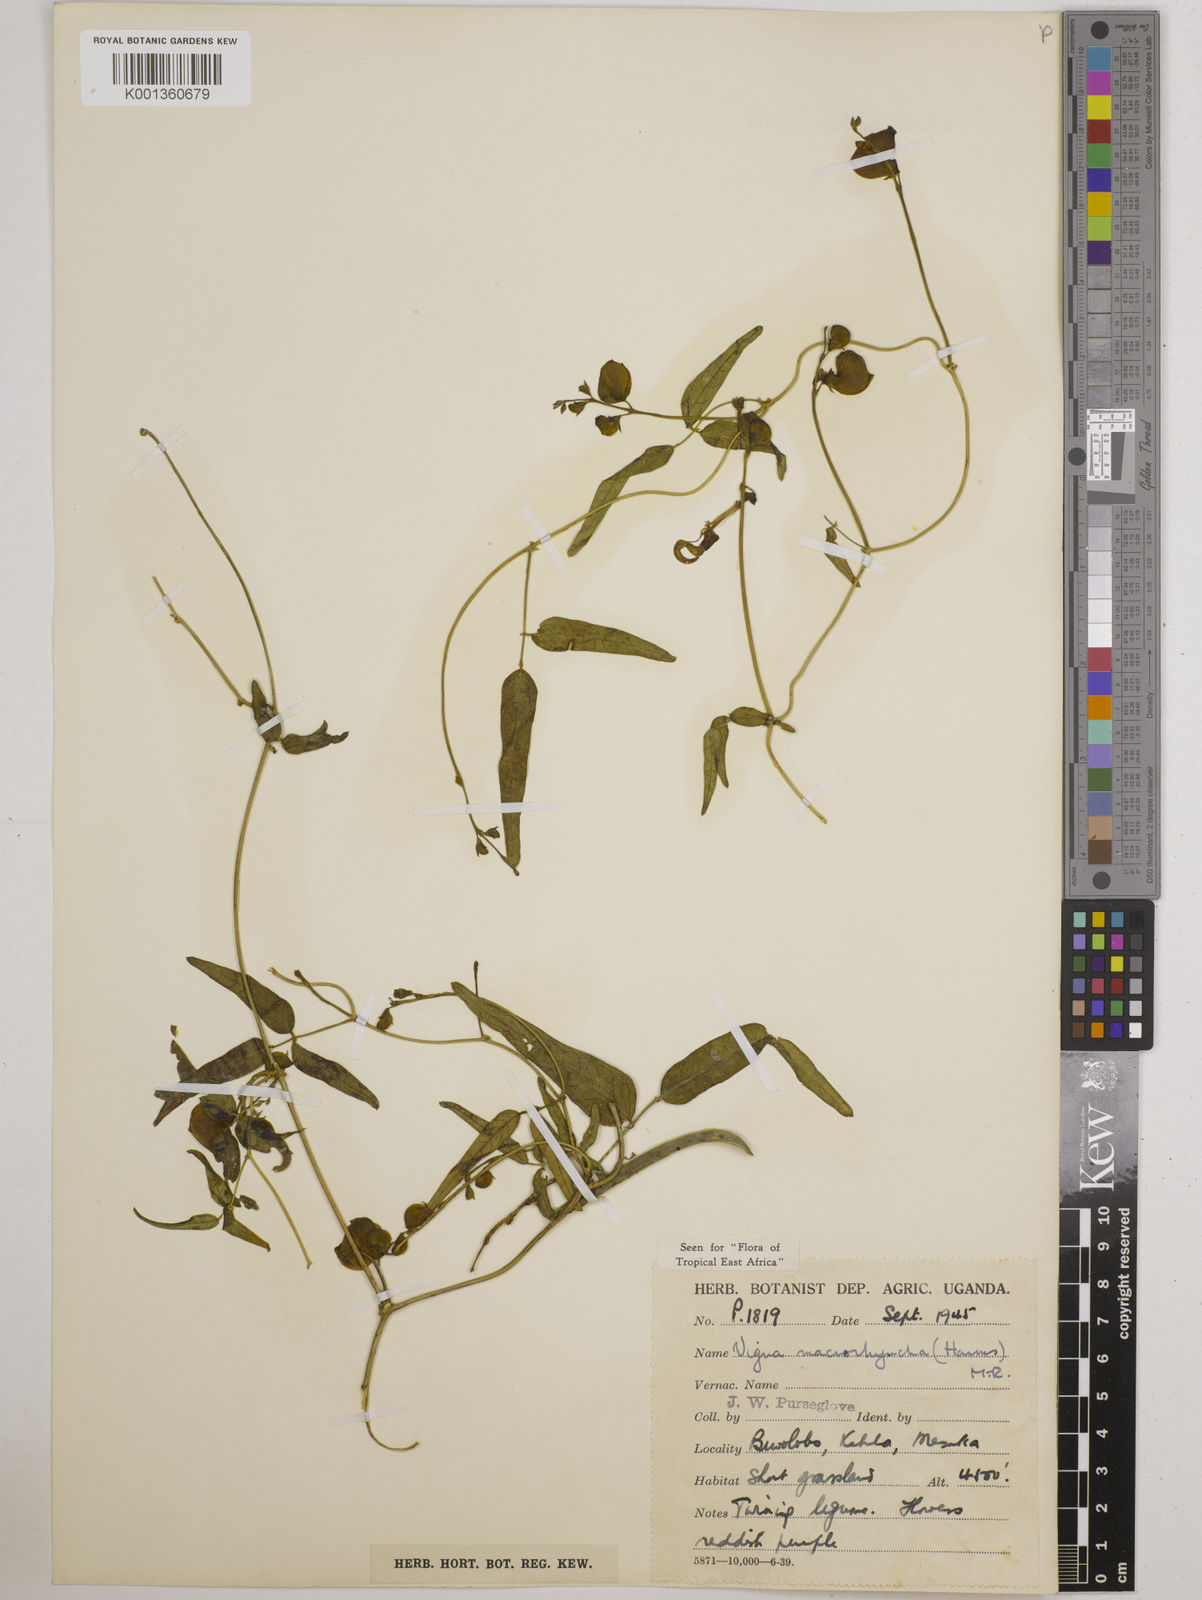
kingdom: Plantae
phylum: Tracheophyta
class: Magnoliopsida
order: Fabales
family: Fabaceae
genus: Wajira
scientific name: Wajira grahamiana
